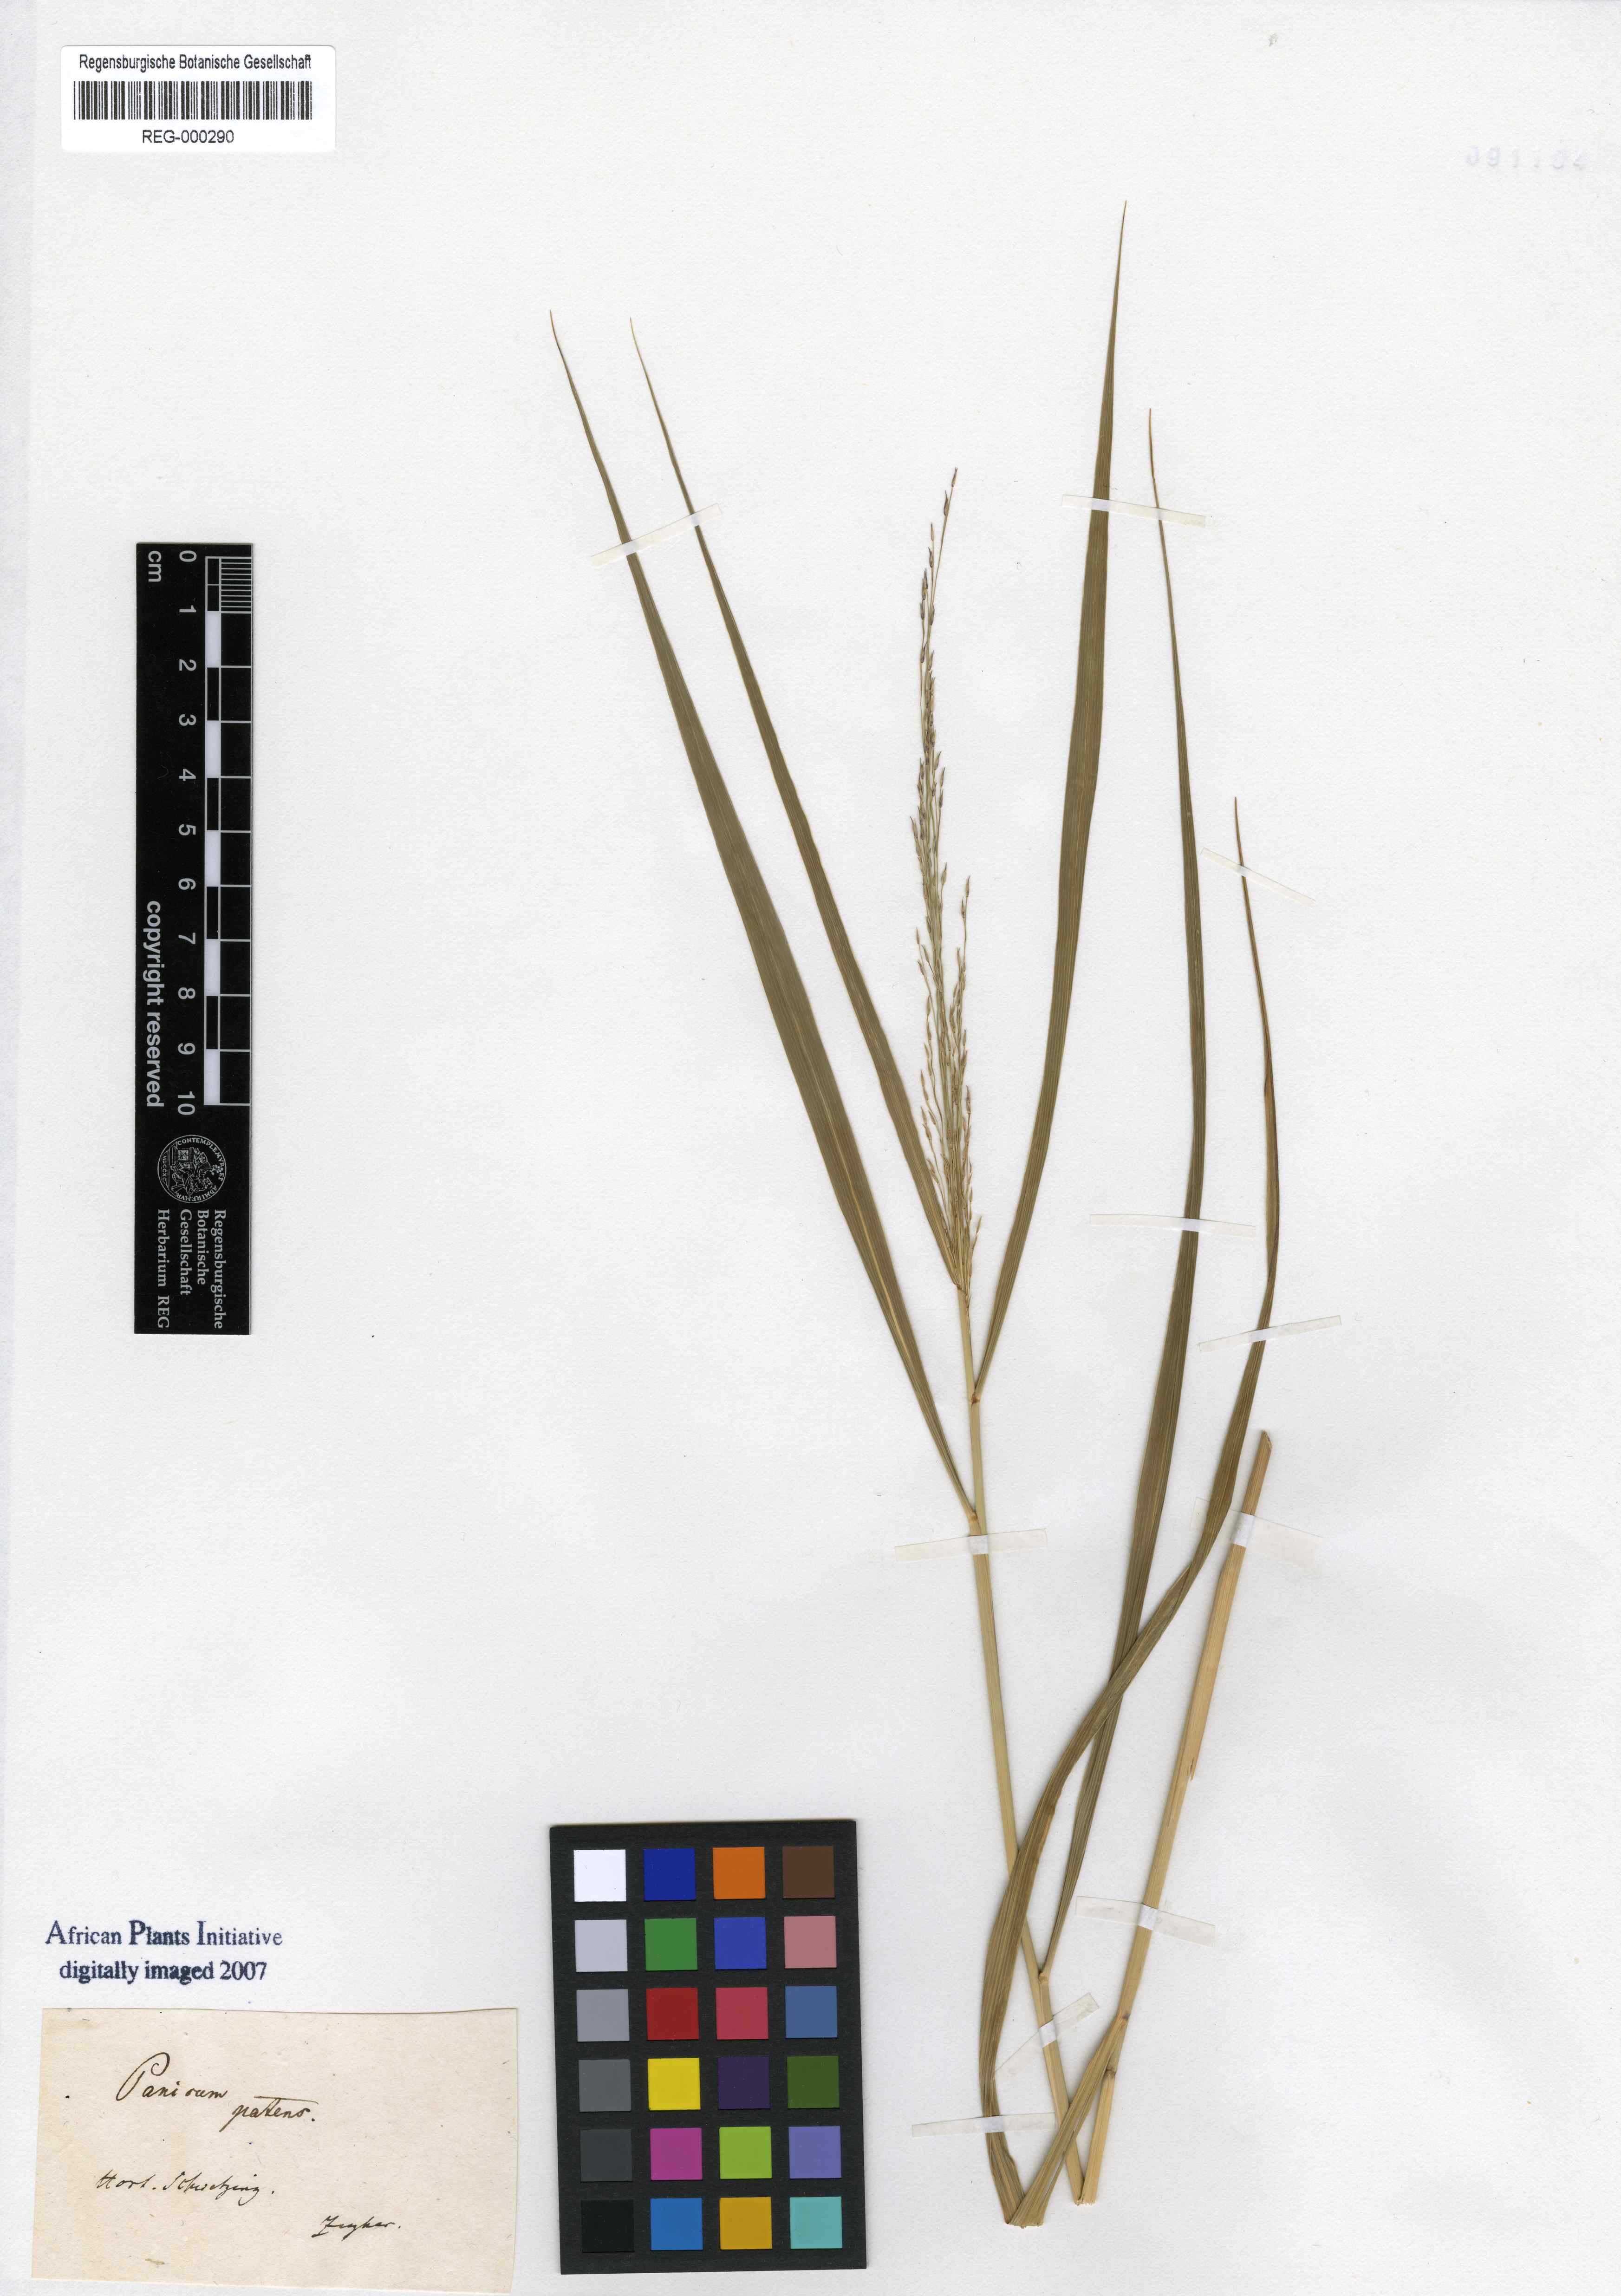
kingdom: Plantae
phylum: Tracheophyta
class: Liliopsida
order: Poales
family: Poaceae
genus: Cyrtococcum
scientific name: Cyrtococcum patens
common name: Broad-leaved bowgrass
